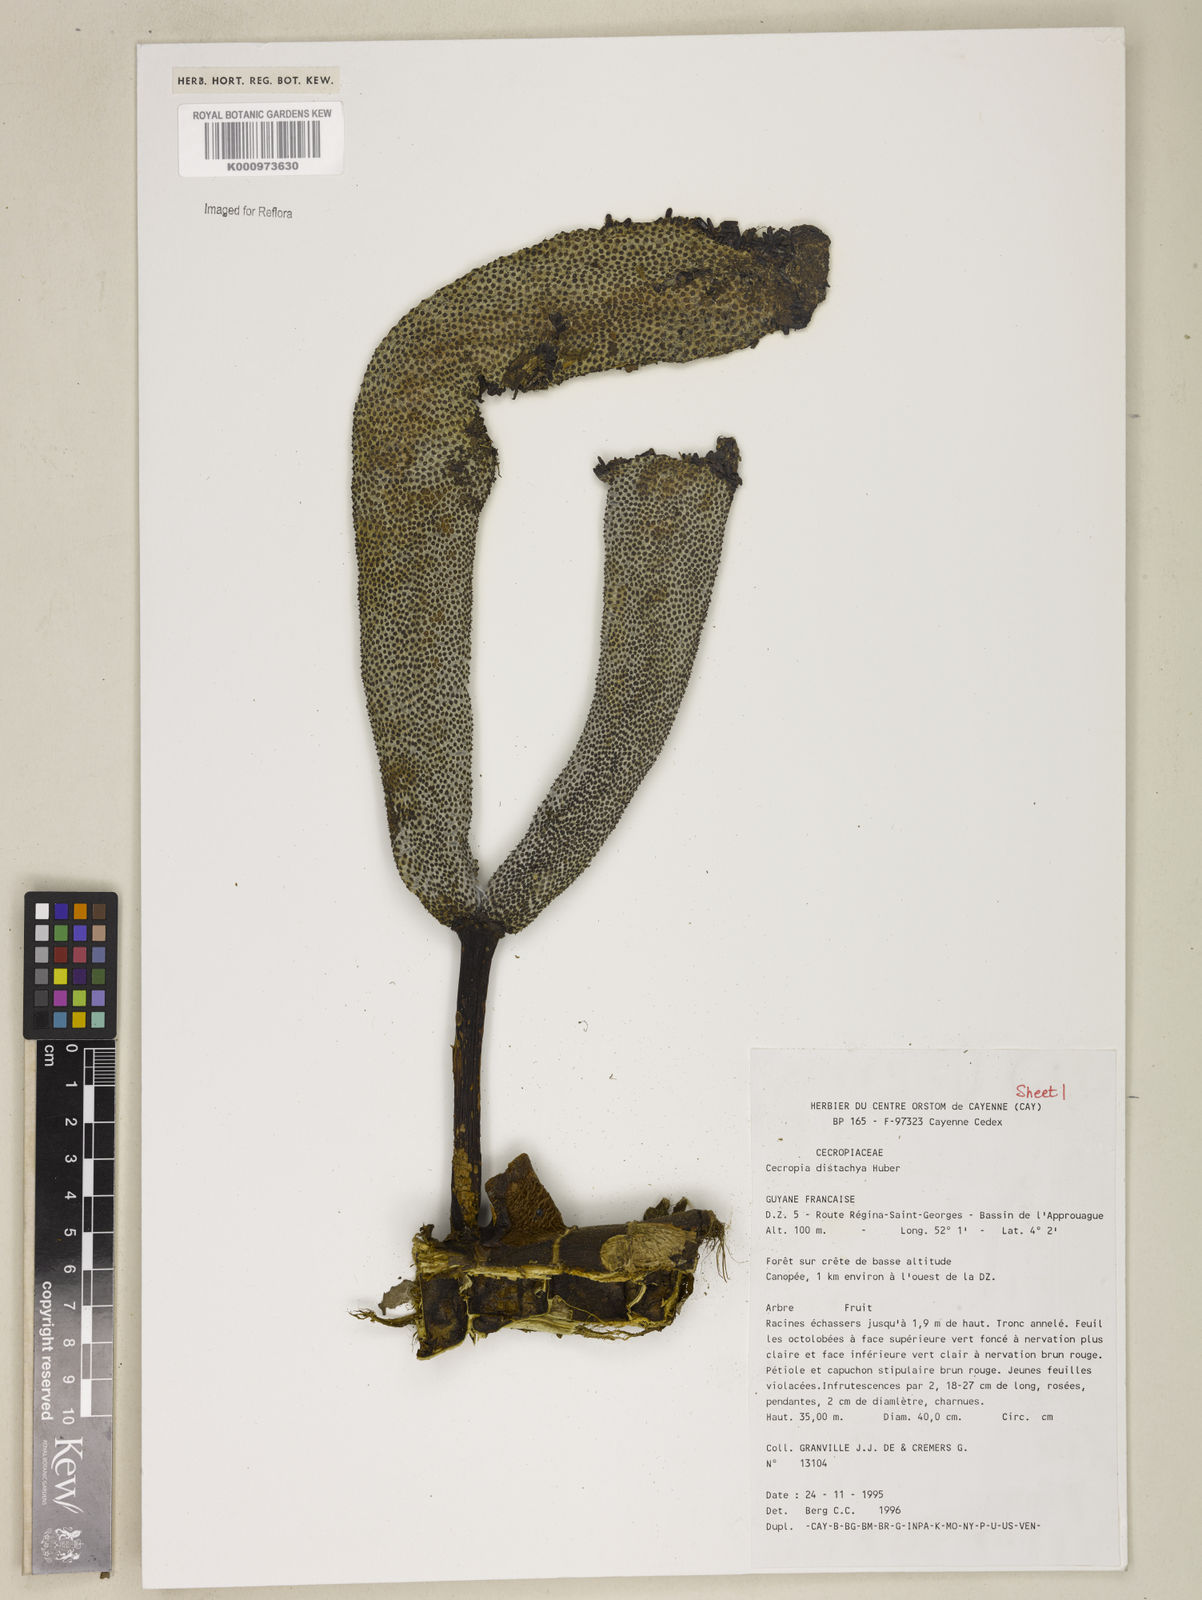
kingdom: Plantae
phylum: Tracheophyta
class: Magnoliopsida
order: Rosales
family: Urticaceae
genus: Cecropia
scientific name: Cecropia distachya
